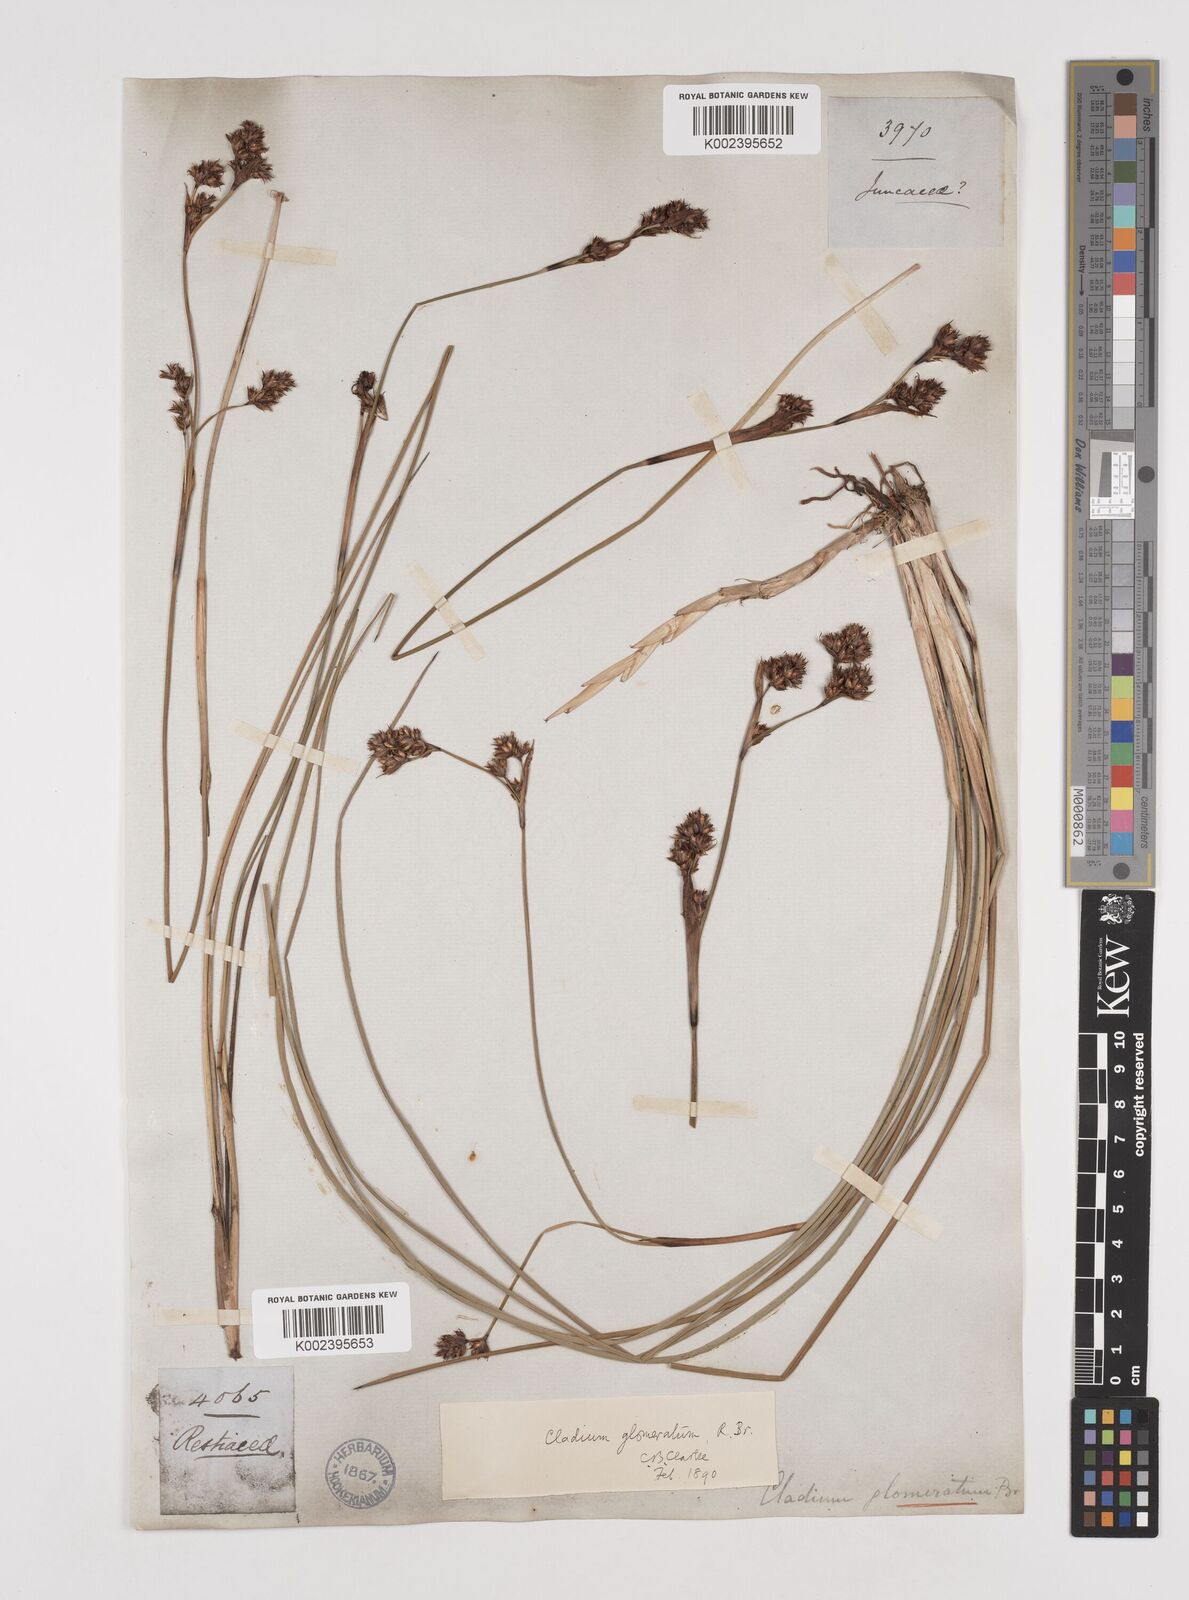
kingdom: Plantae
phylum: Tracheophyta
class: Liliopsida
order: Poales
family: Cyperaceae
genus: Machaerina
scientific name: Machaerina rubiginosa
